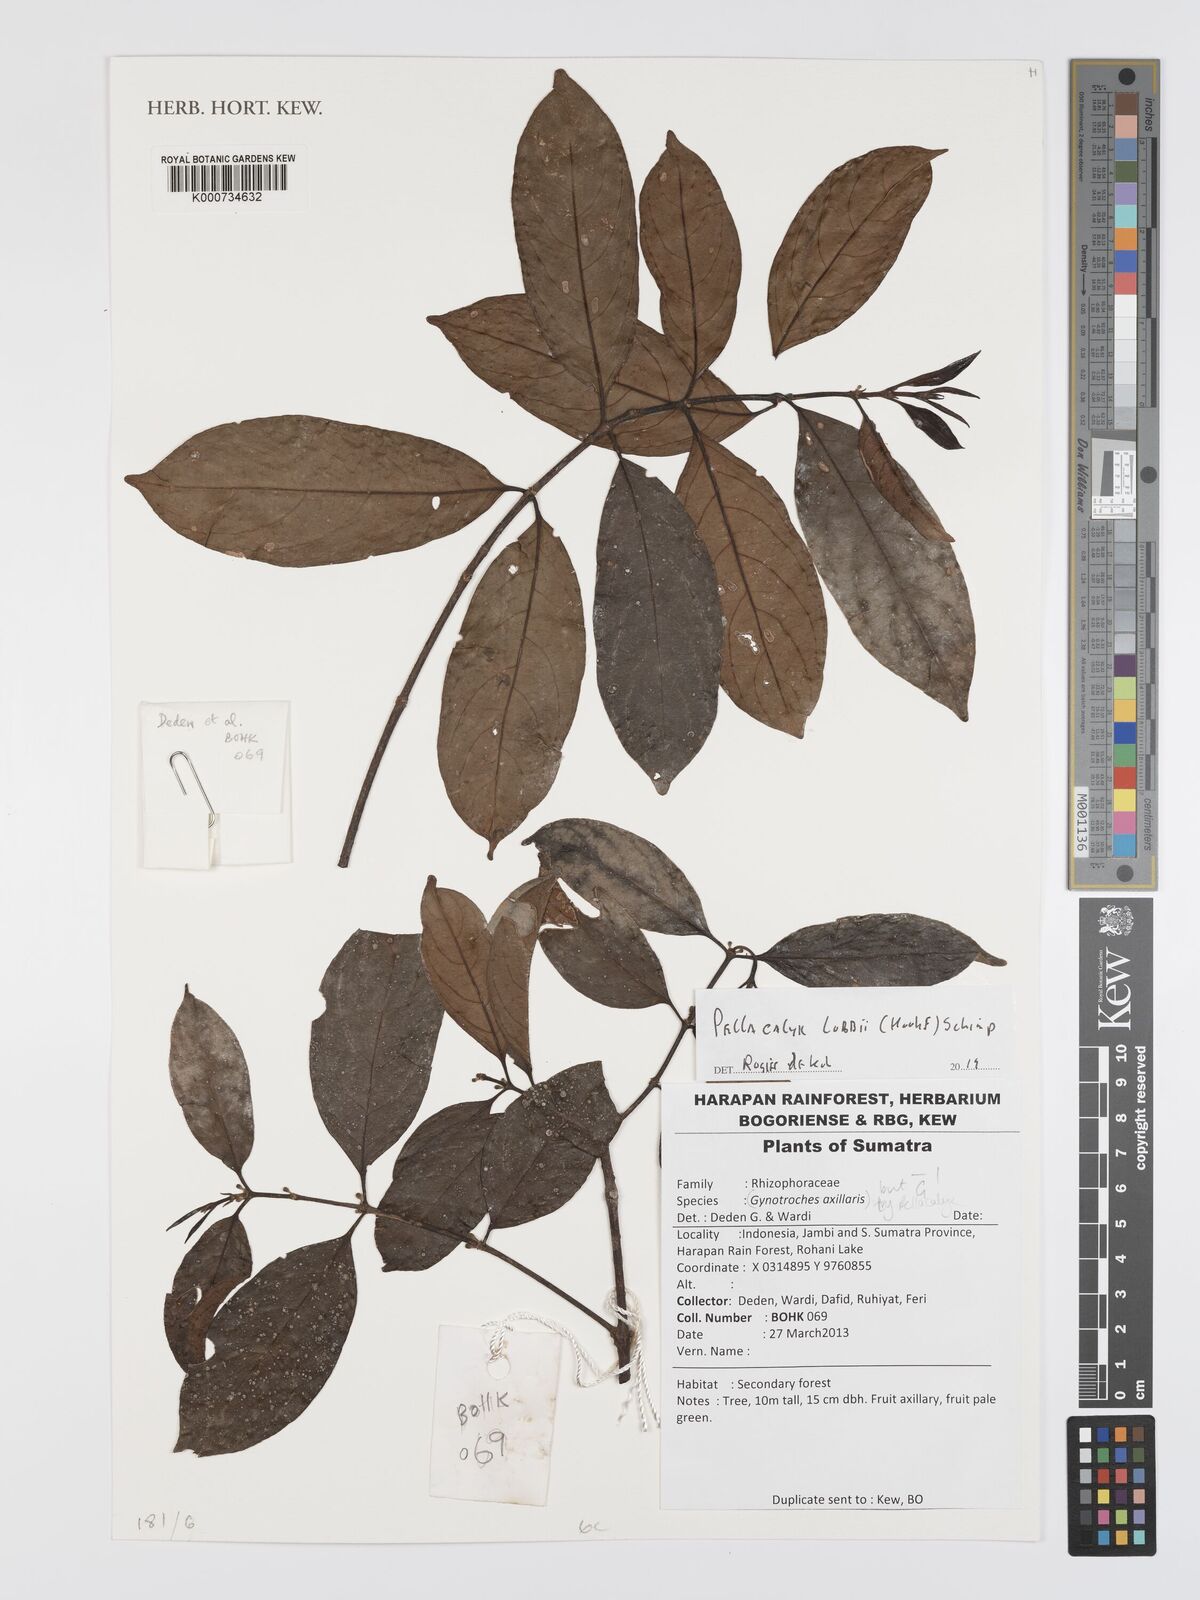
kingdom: Plantae
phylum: Tracheophyta
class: Magnoliopsida
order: Malpighiales
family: Rhizophoraceae
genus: Pellacalyx
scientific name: Pellacalyx
